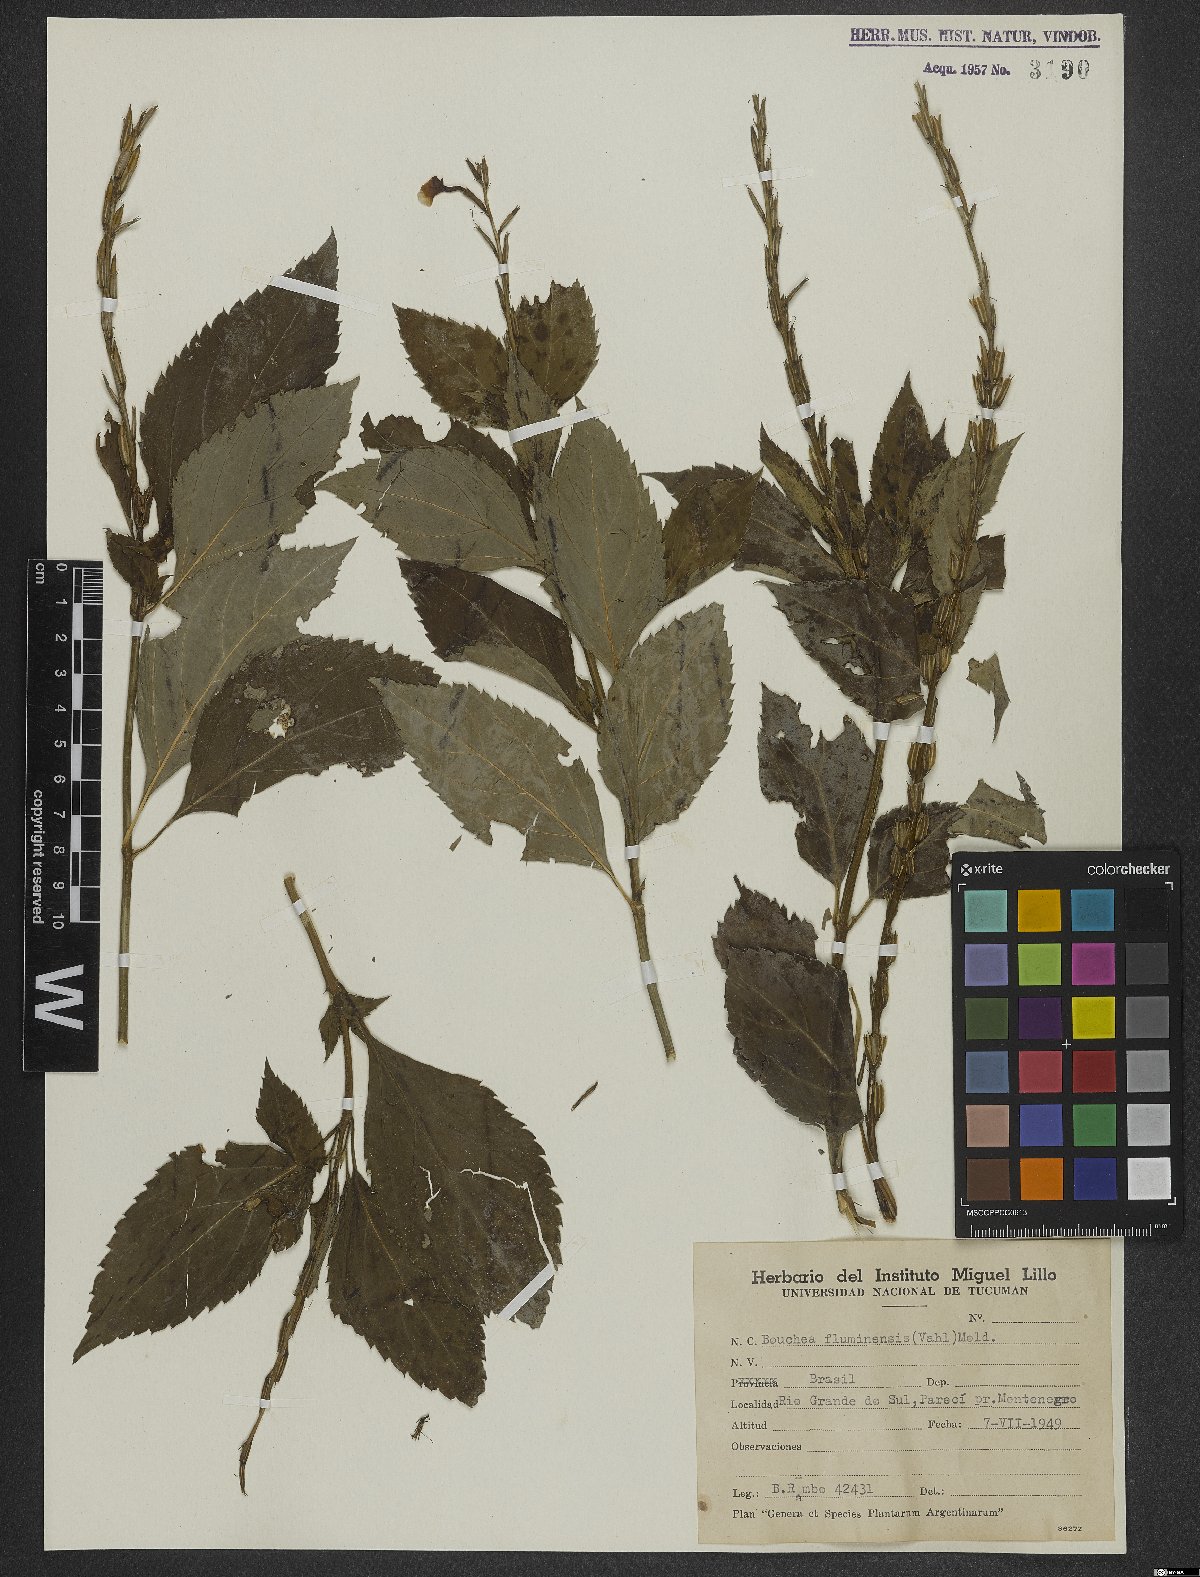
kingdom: Plantae
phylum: Tracheophyta
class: Magnoliopsida
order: Lamiales
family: Verbenaceae
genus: Bouchea
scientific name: Bouchea pseudogervao
